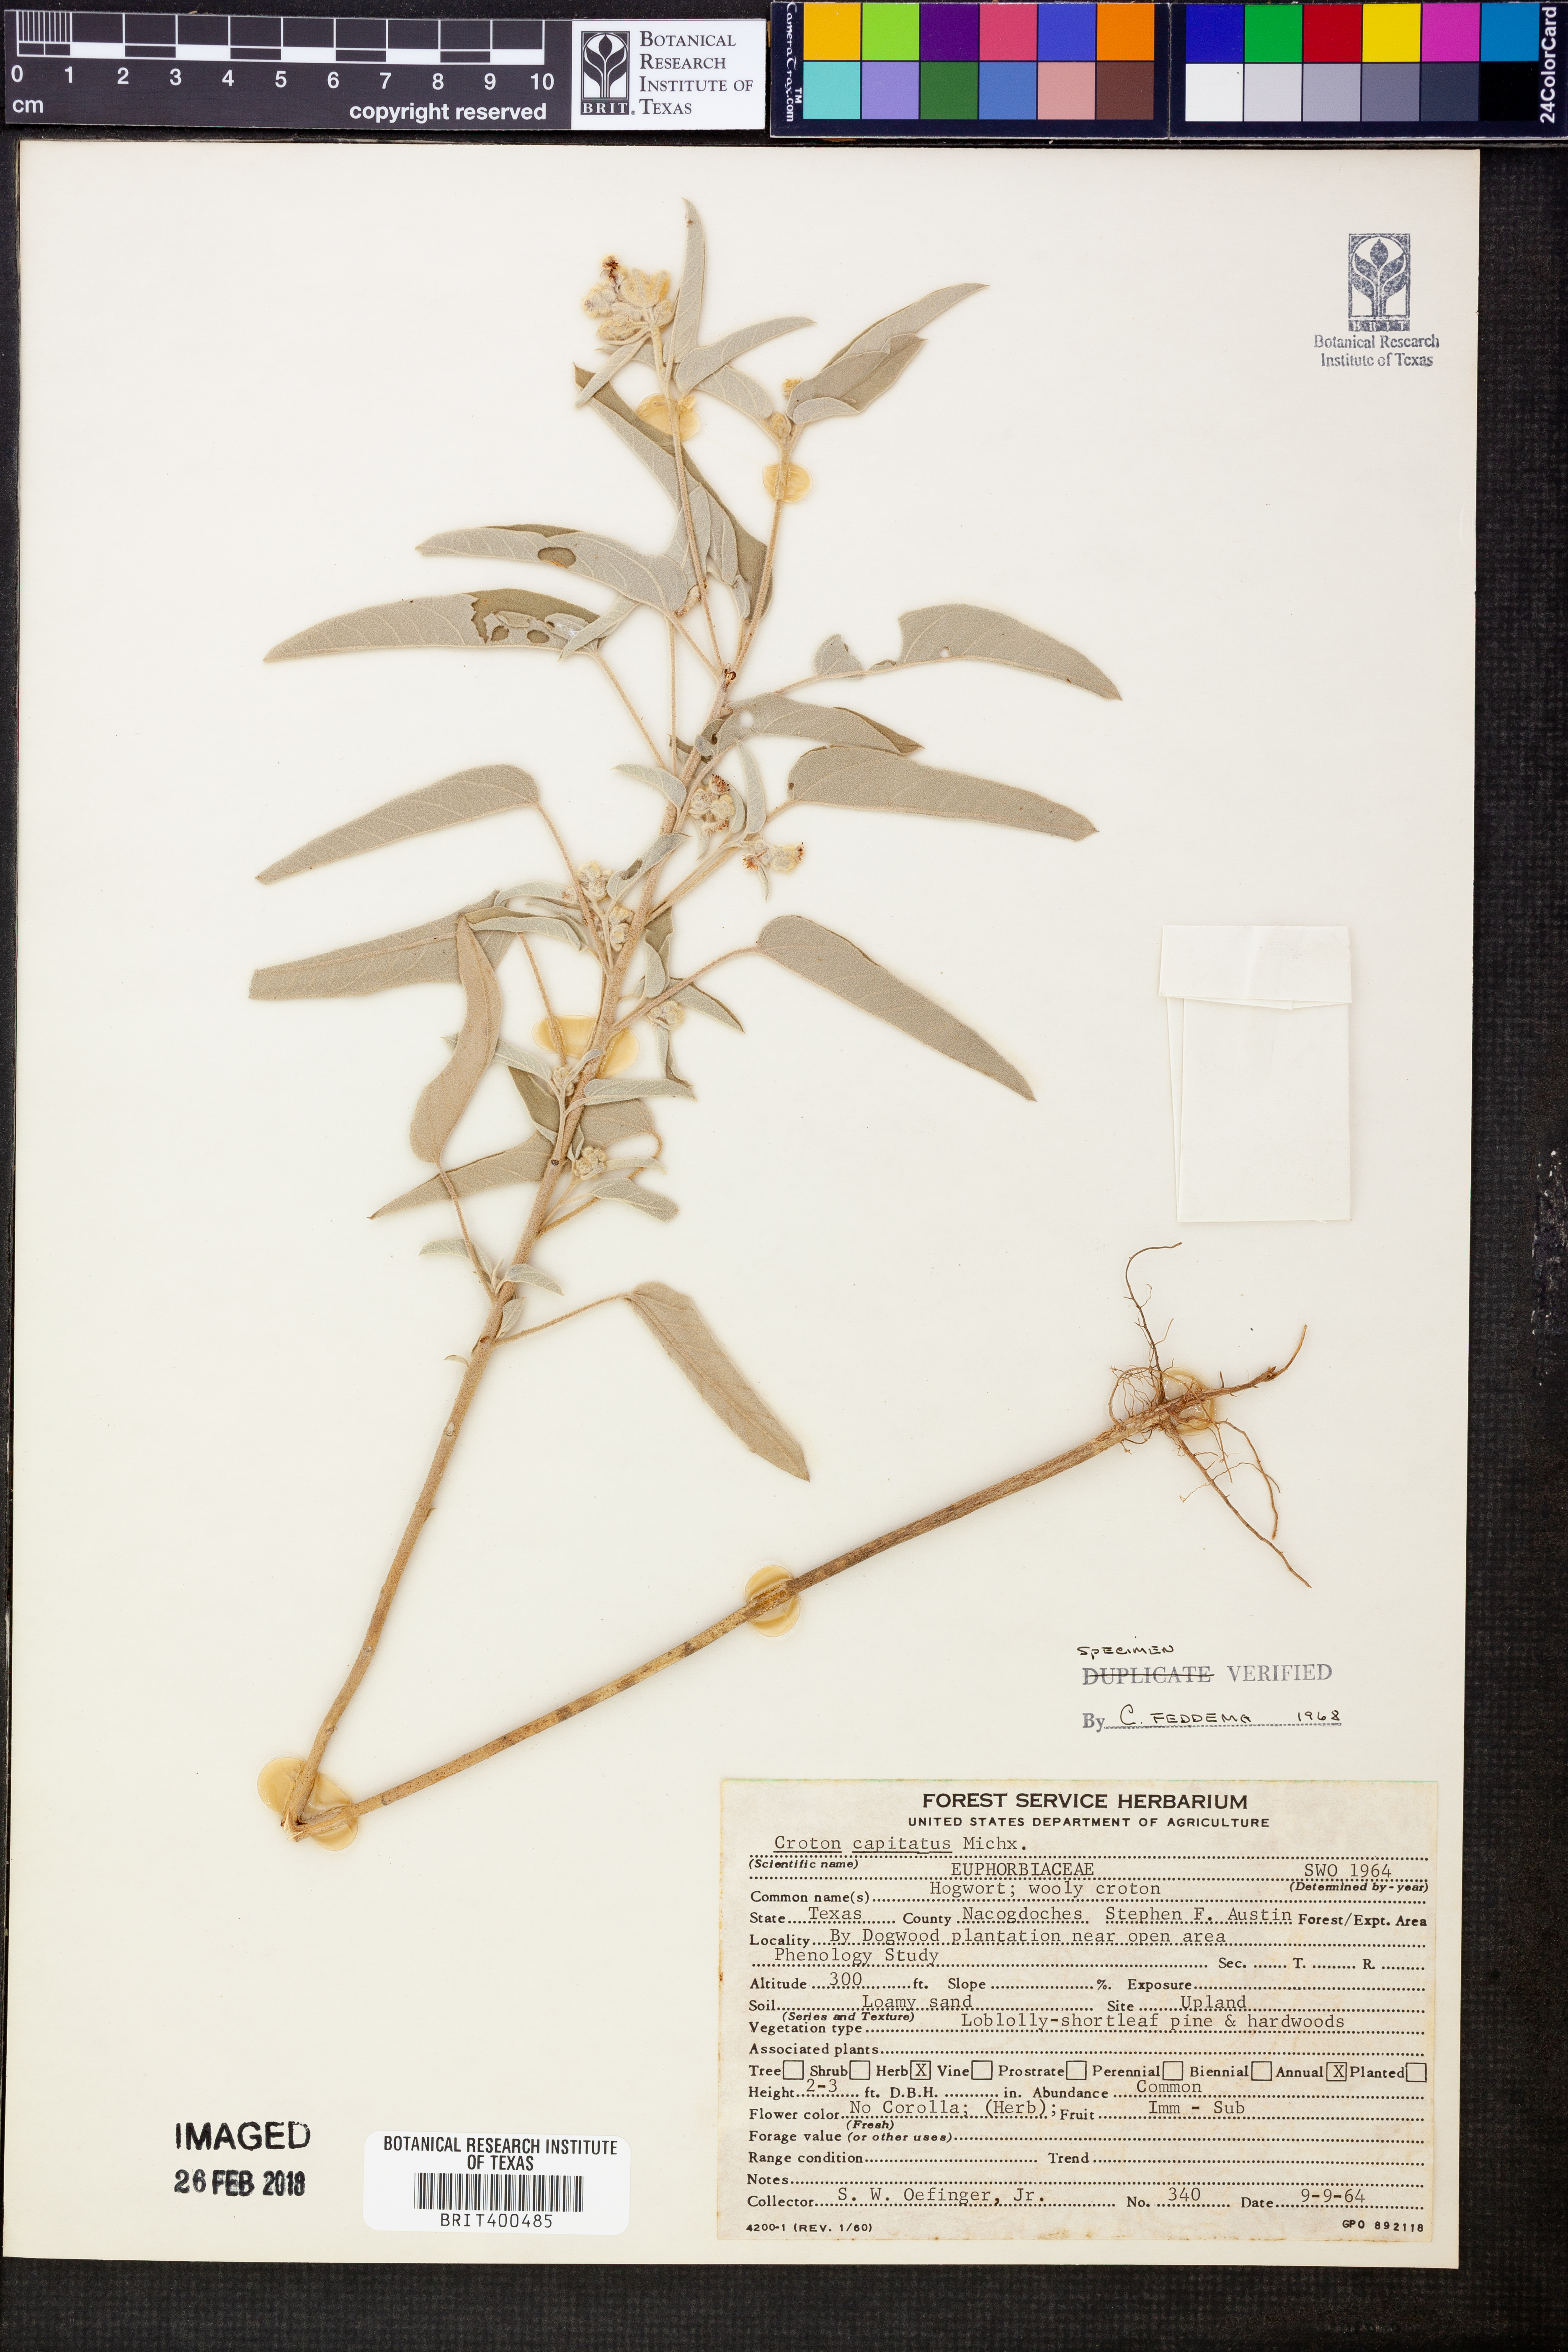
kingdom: Plantae
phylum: Tracheophyta
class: Magnoliopsida
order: Malpighiales
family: Euphorbiaceae
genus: Croton
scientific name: Croton capitatus
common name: Woolly croton
